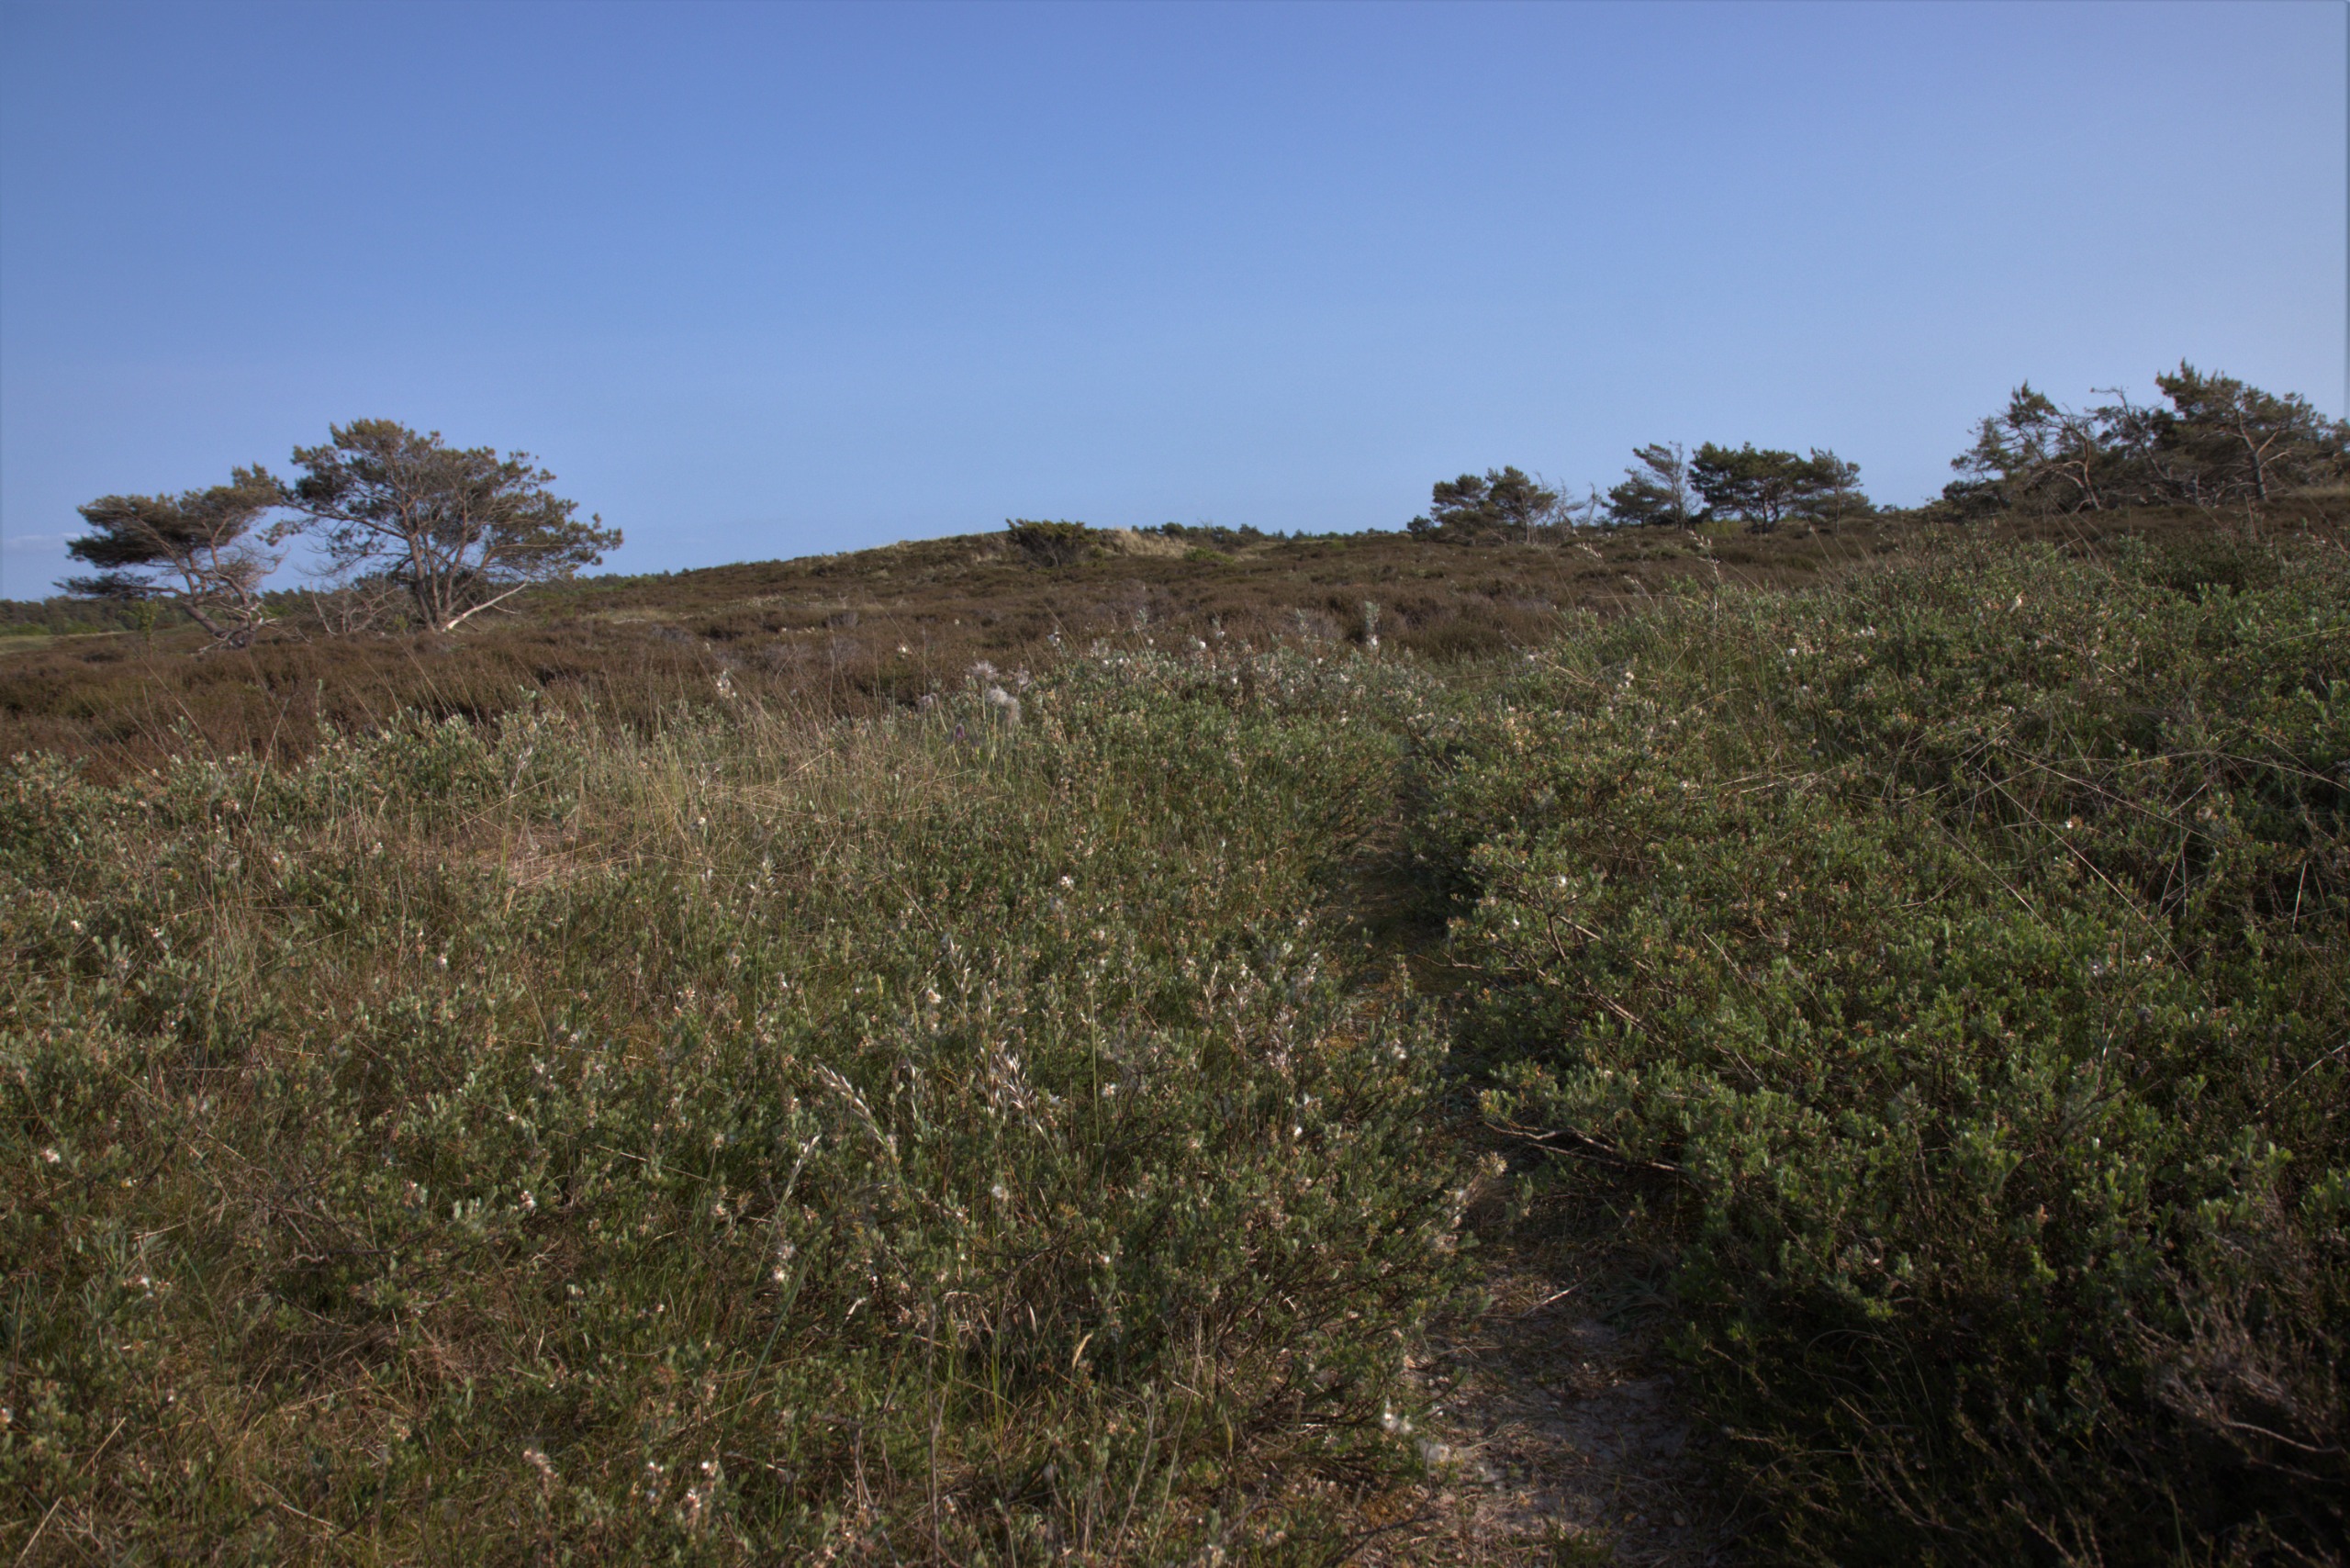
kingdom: Plantae
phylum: Tracheophyta
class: Magnoliopsida
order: Malpighiales
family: Salicaceae
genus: Salix
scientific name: Salix repens
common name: Krybende pil
